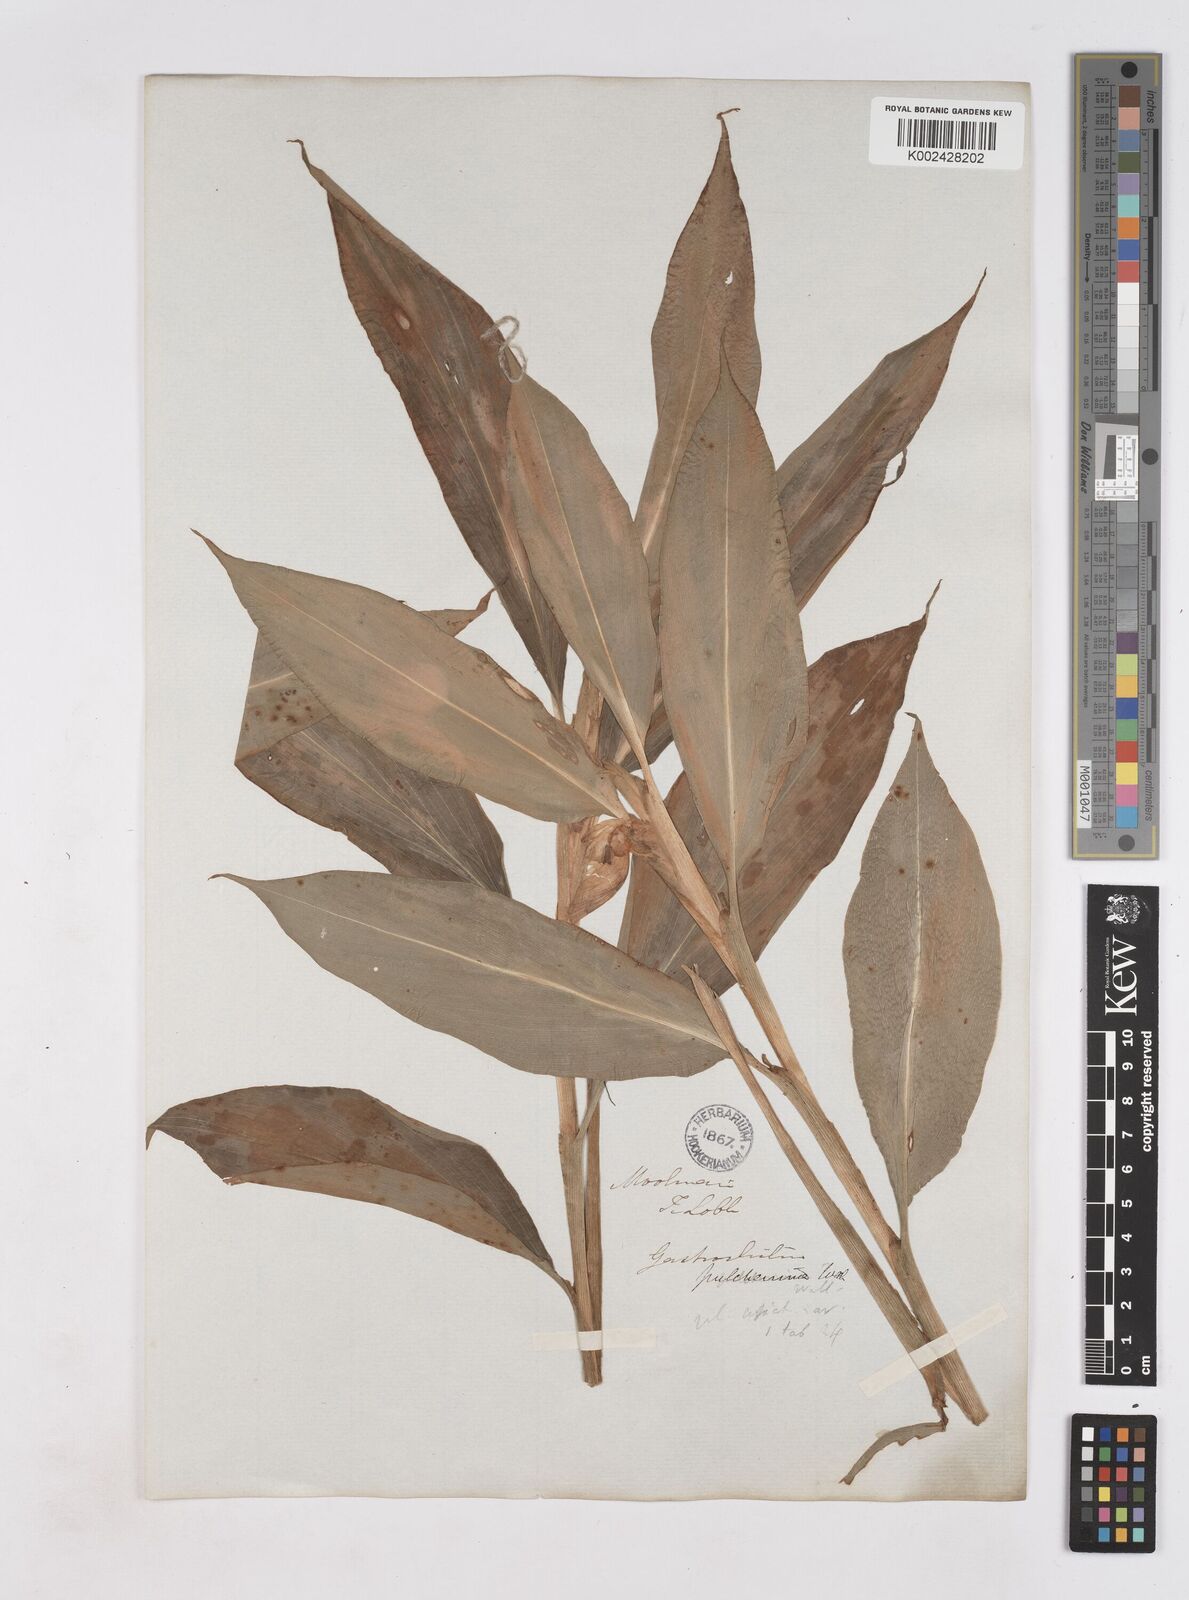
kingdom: Plantae
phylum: Tracheophyta
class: Liliopsida
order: Zingiberales
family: Zingiberaceae
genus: Boesenbergia
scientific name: Boesenbergia pulcherrima
